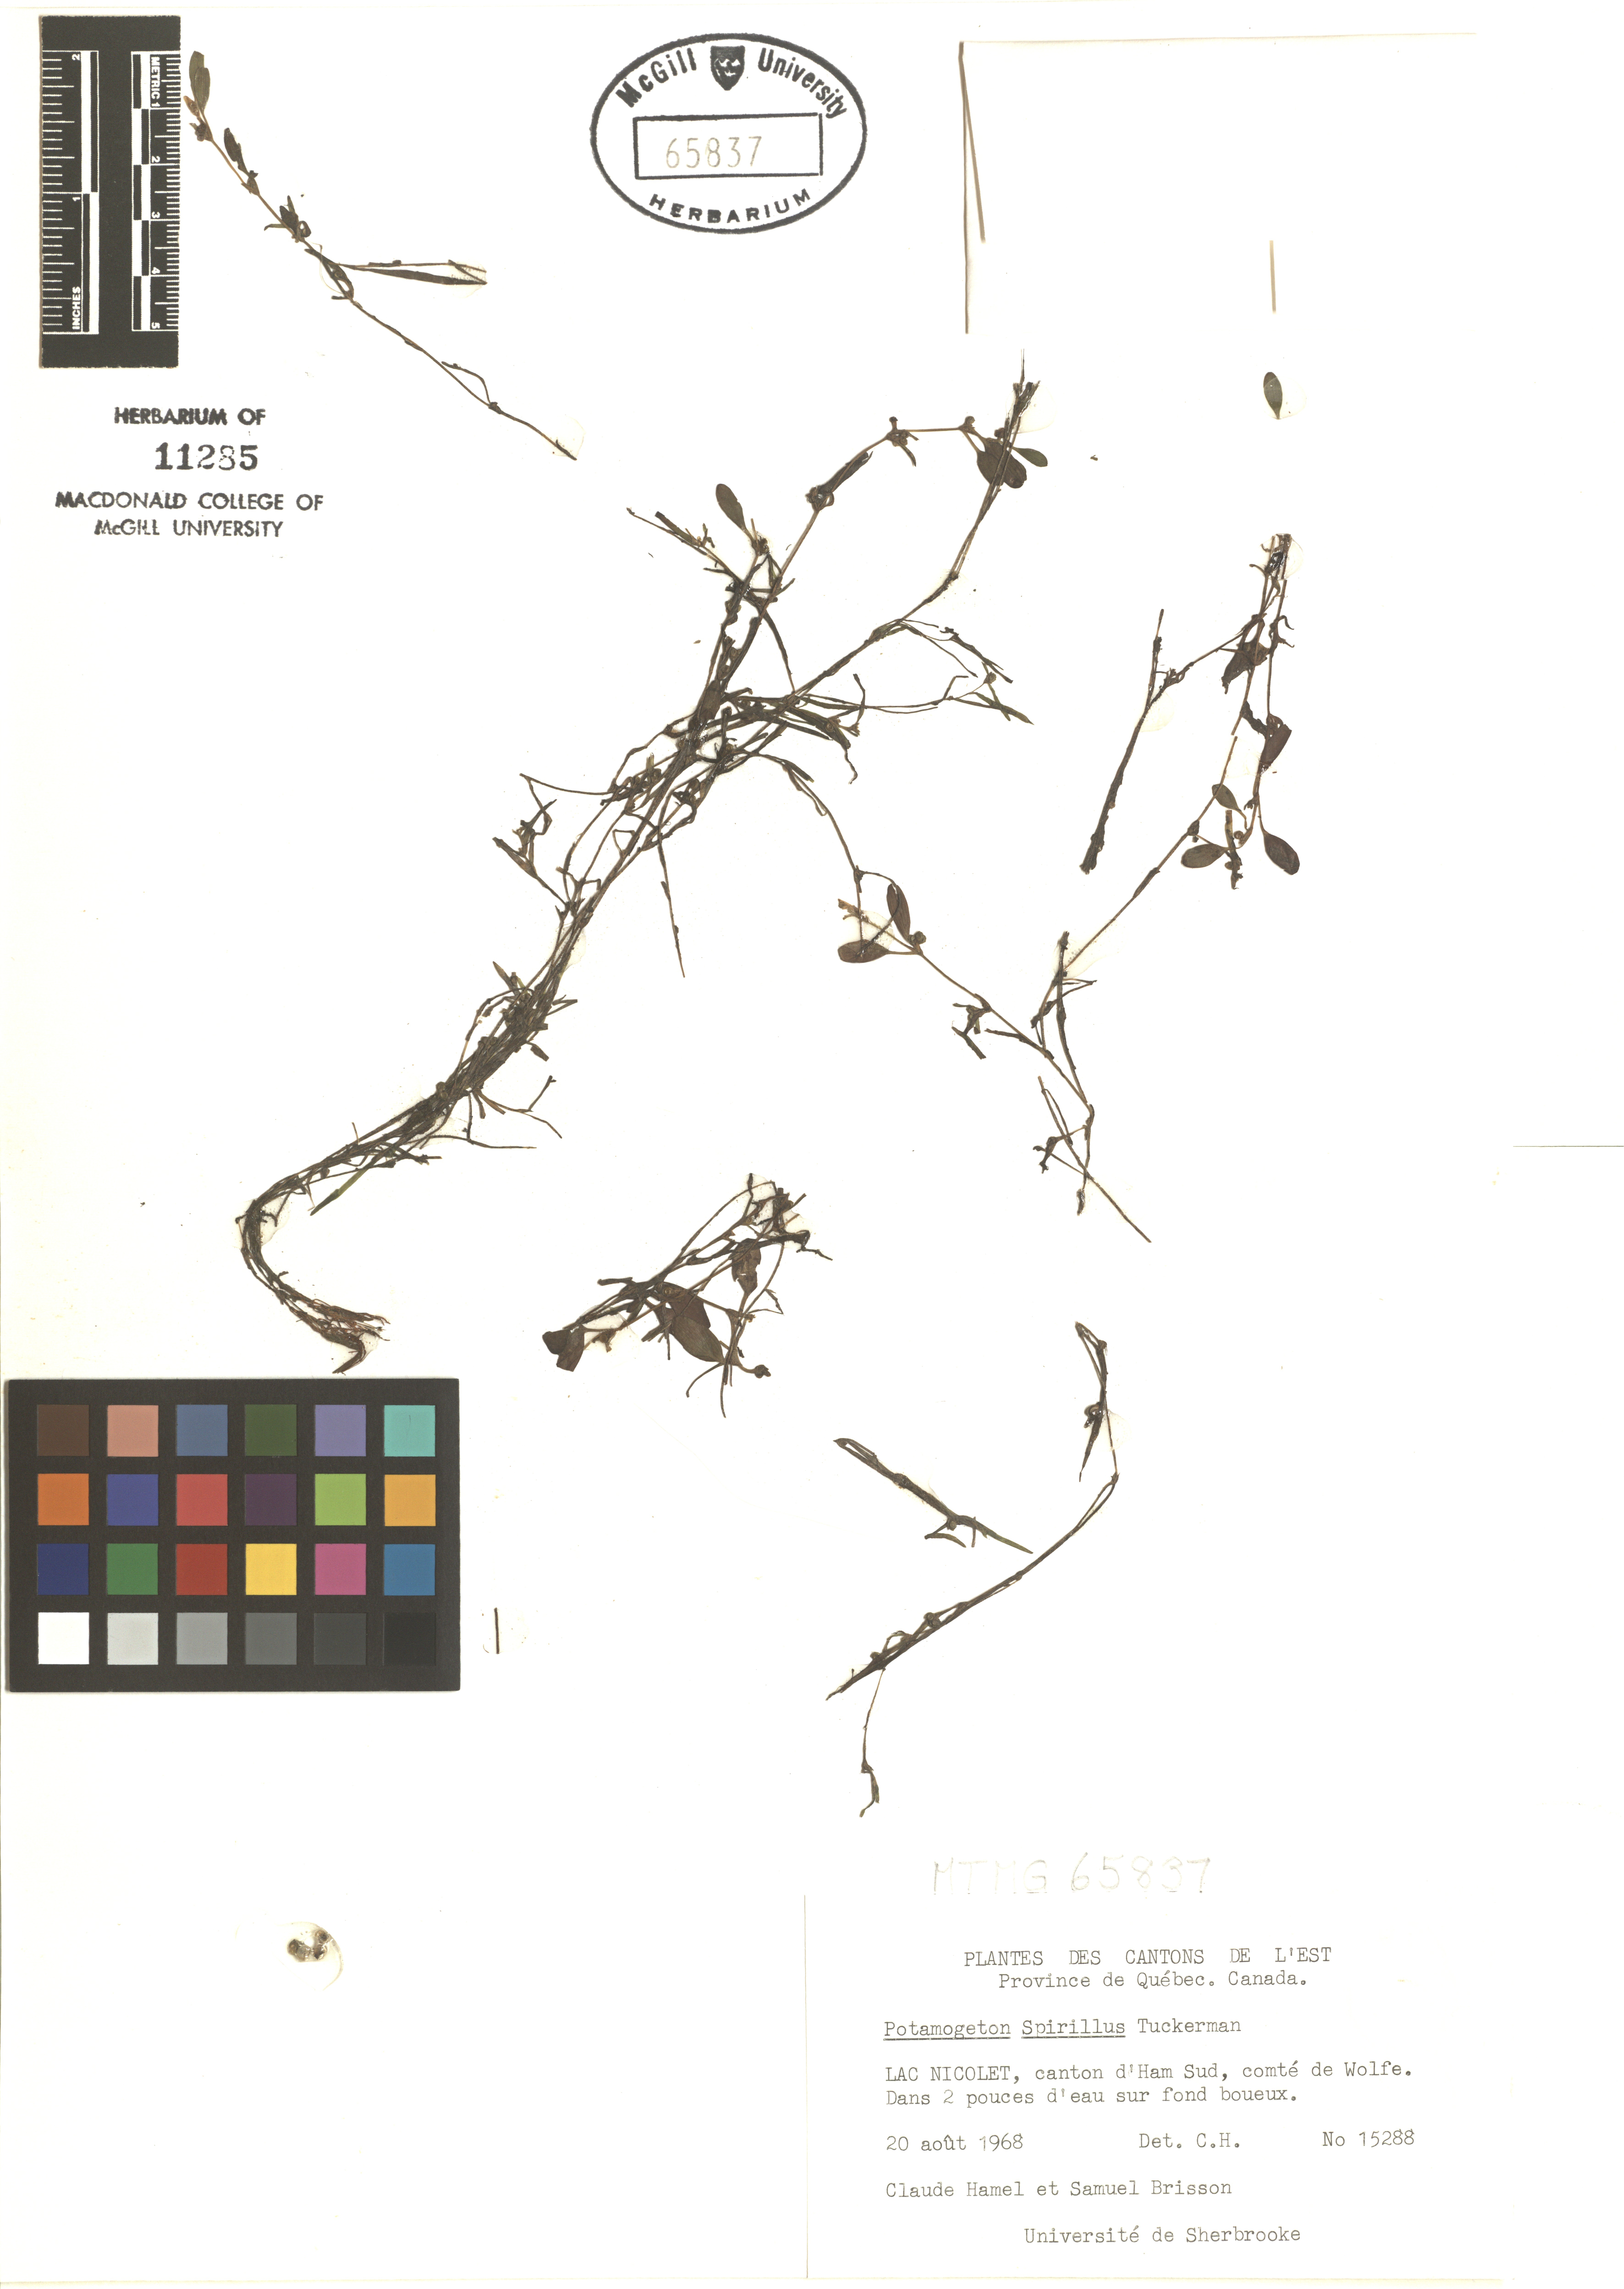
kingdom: Plantae
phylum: Tracheophyta
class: Liliopsida
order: Alismatales
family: Potamogetonaceae
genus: Potamogeton
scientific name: Potamogeton spirillus
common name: Northern snail-seed pondweed
